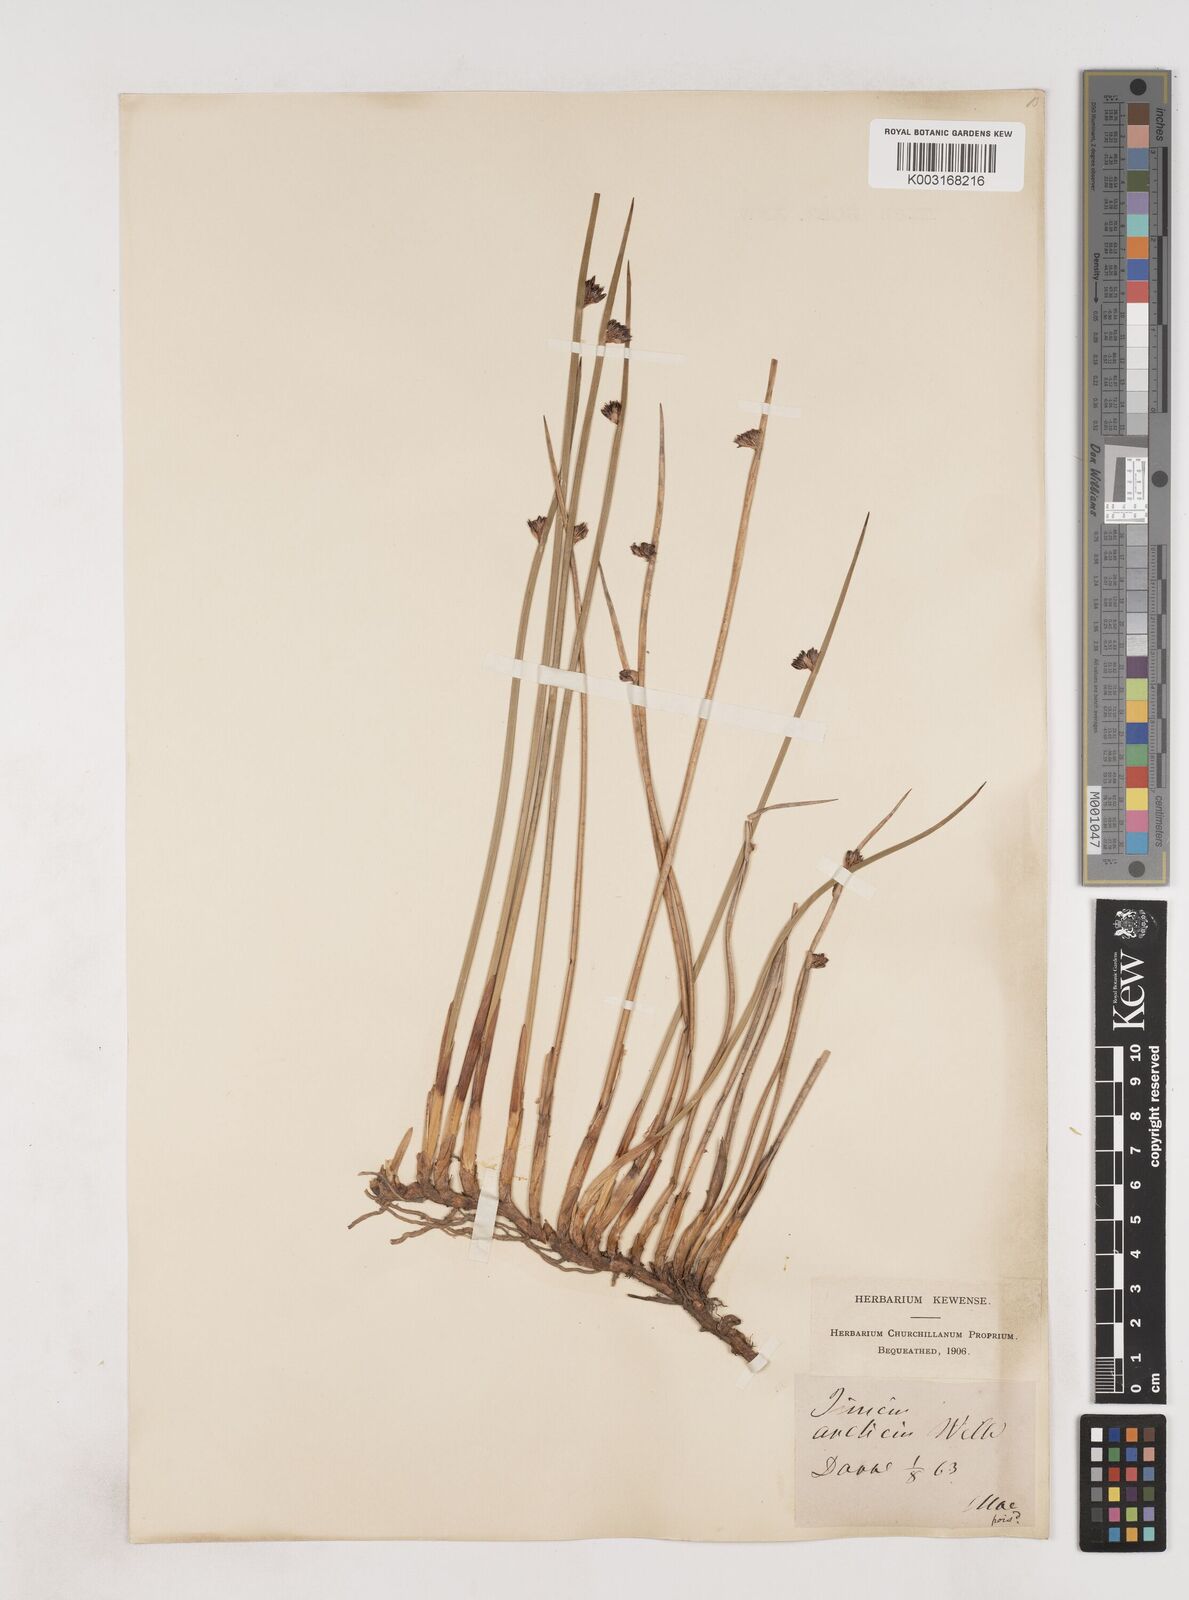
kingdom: Plantae
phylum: Tracheophyta
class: Liliopsida
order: Poales
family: Juncaceae
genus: Juncus
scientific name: Juncus arcticus
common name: Arctic rush
